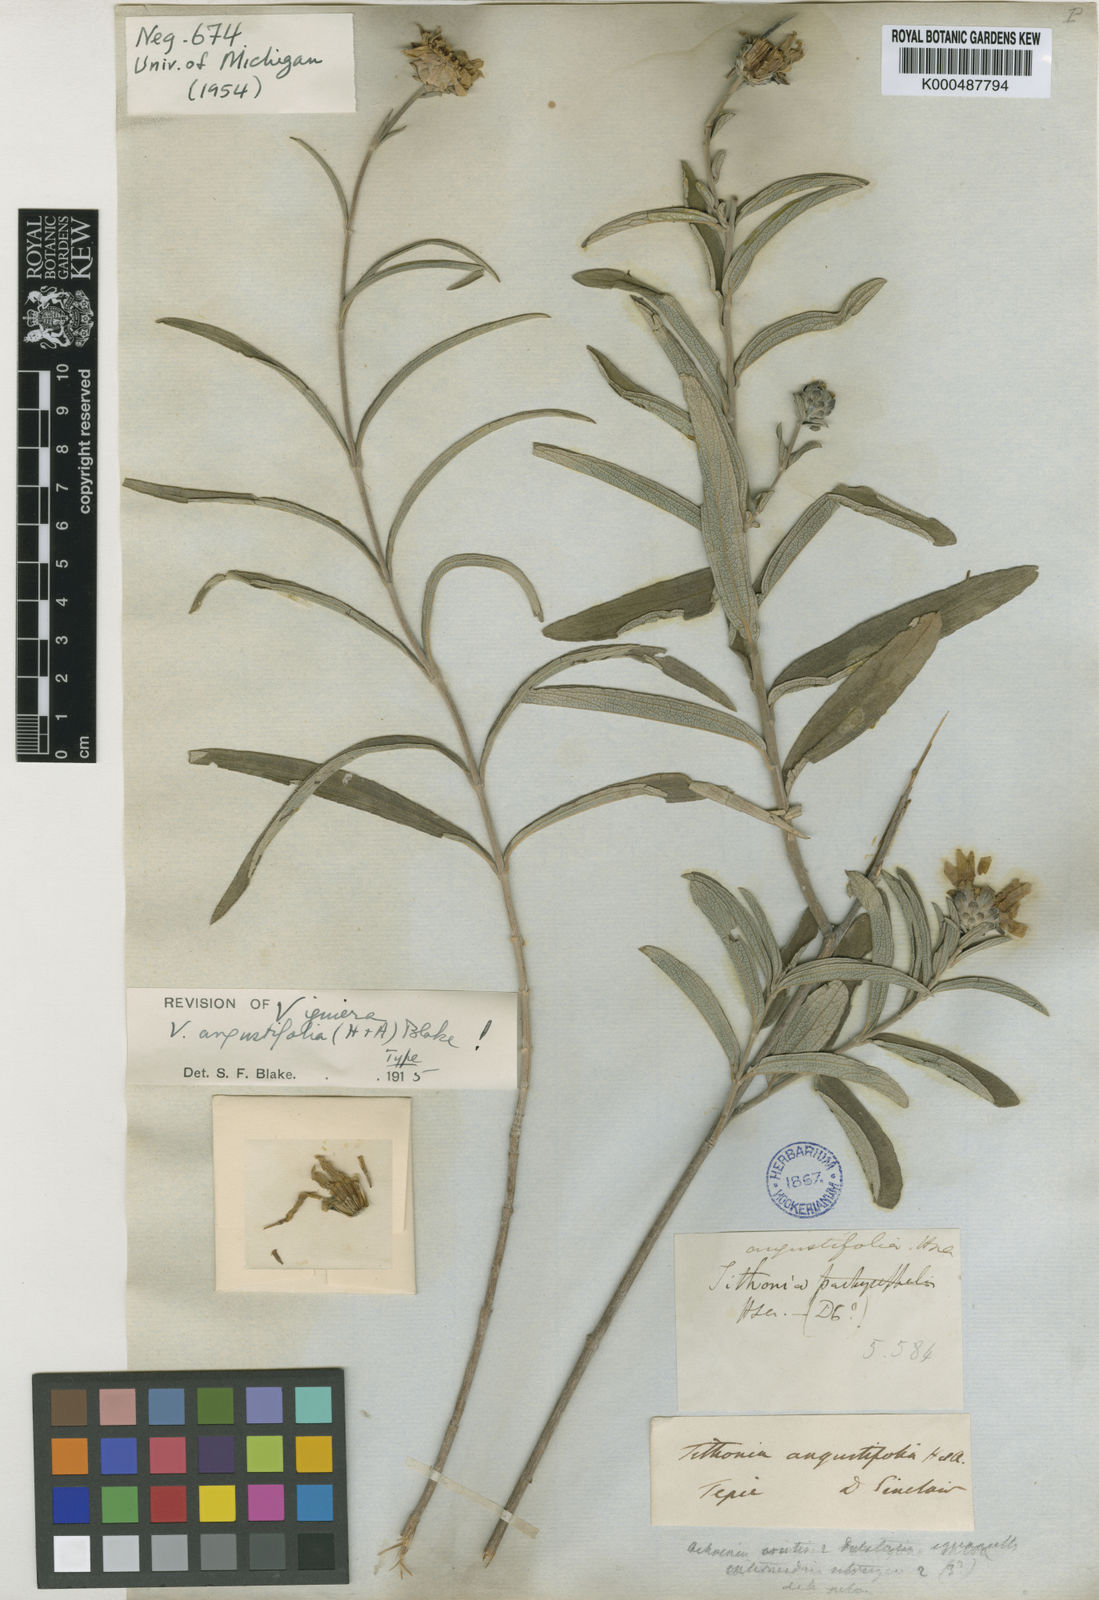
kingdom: Plantae
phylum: Tracheophyta
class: Magnoliopsida
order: Asterales
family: Asteraceae
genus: Aldama
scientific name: Aldama angustifolia
